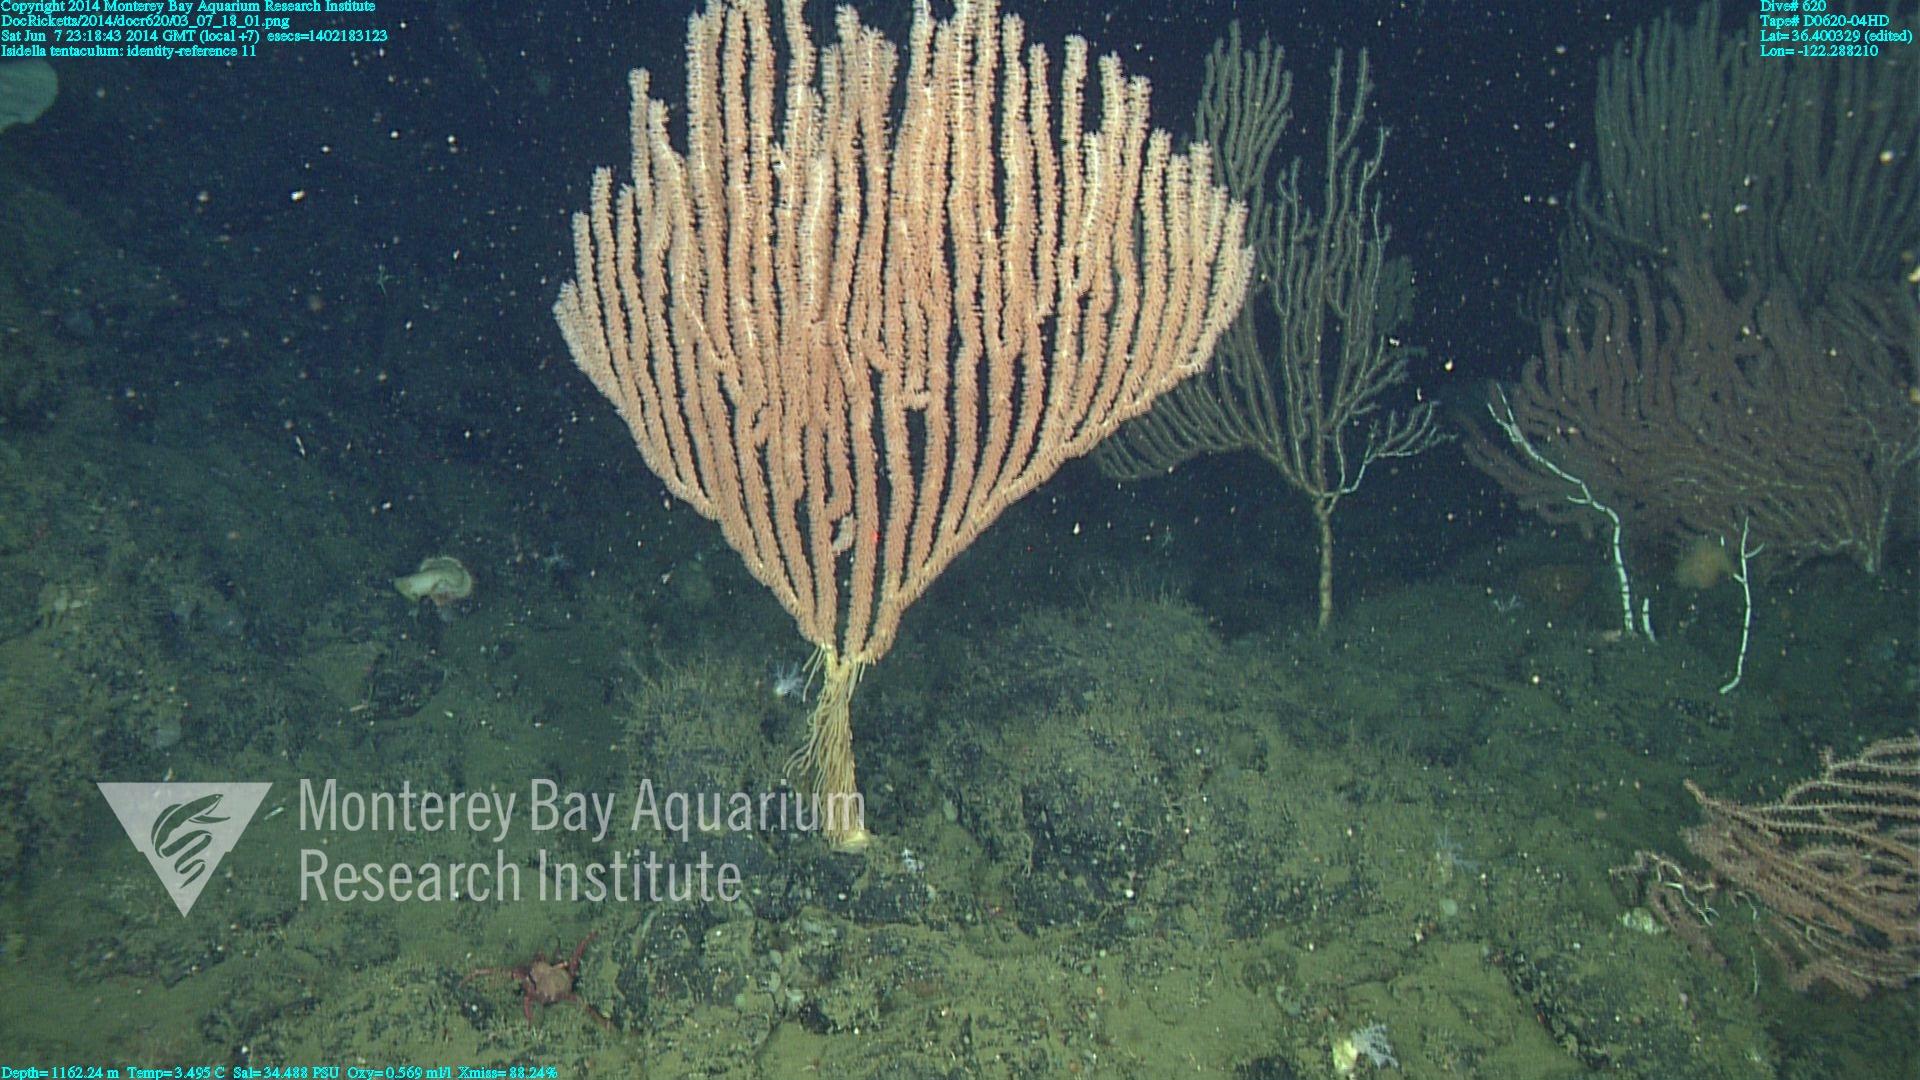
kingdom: Animalia
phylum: Cnidaria
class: Anthozoa
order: Scleralcyonacea
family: Keratoisididae
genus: Isidella
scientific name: Isidella tentaculum
